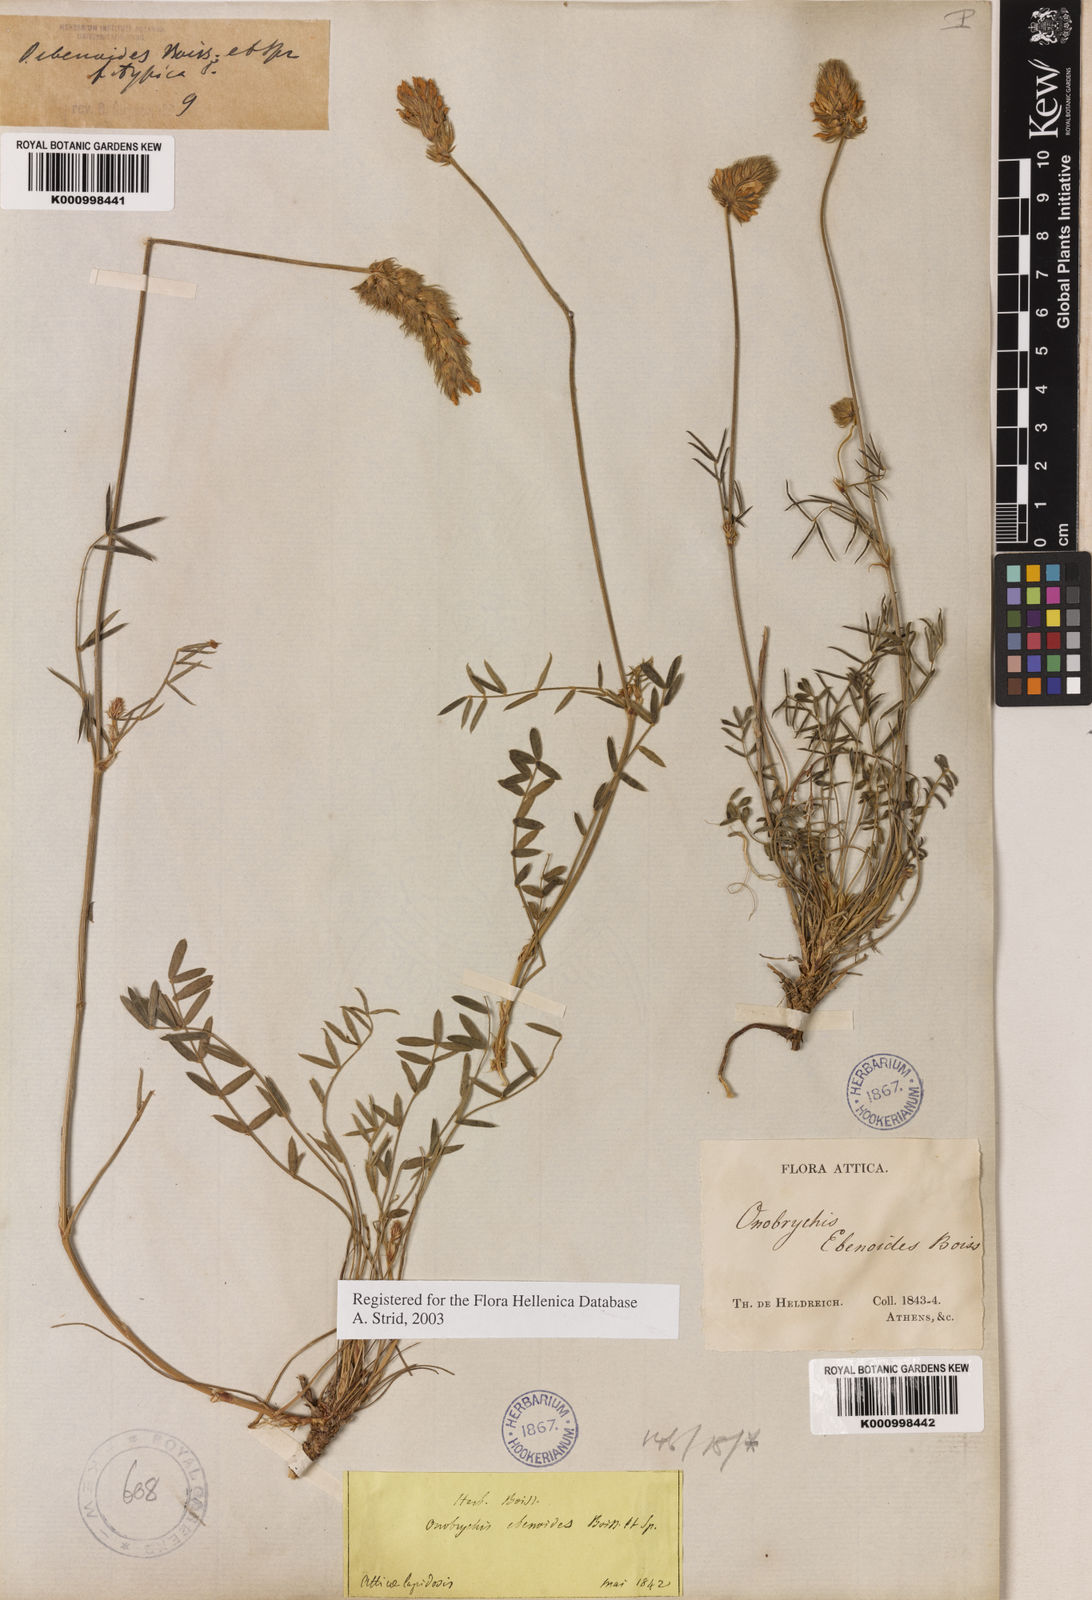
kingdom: Plantae
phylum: Tracheophyta
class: Magnoliopsida
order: Fabales
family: Fabaceae
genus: Onobrychis
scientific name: Onobrychis ebenoides
